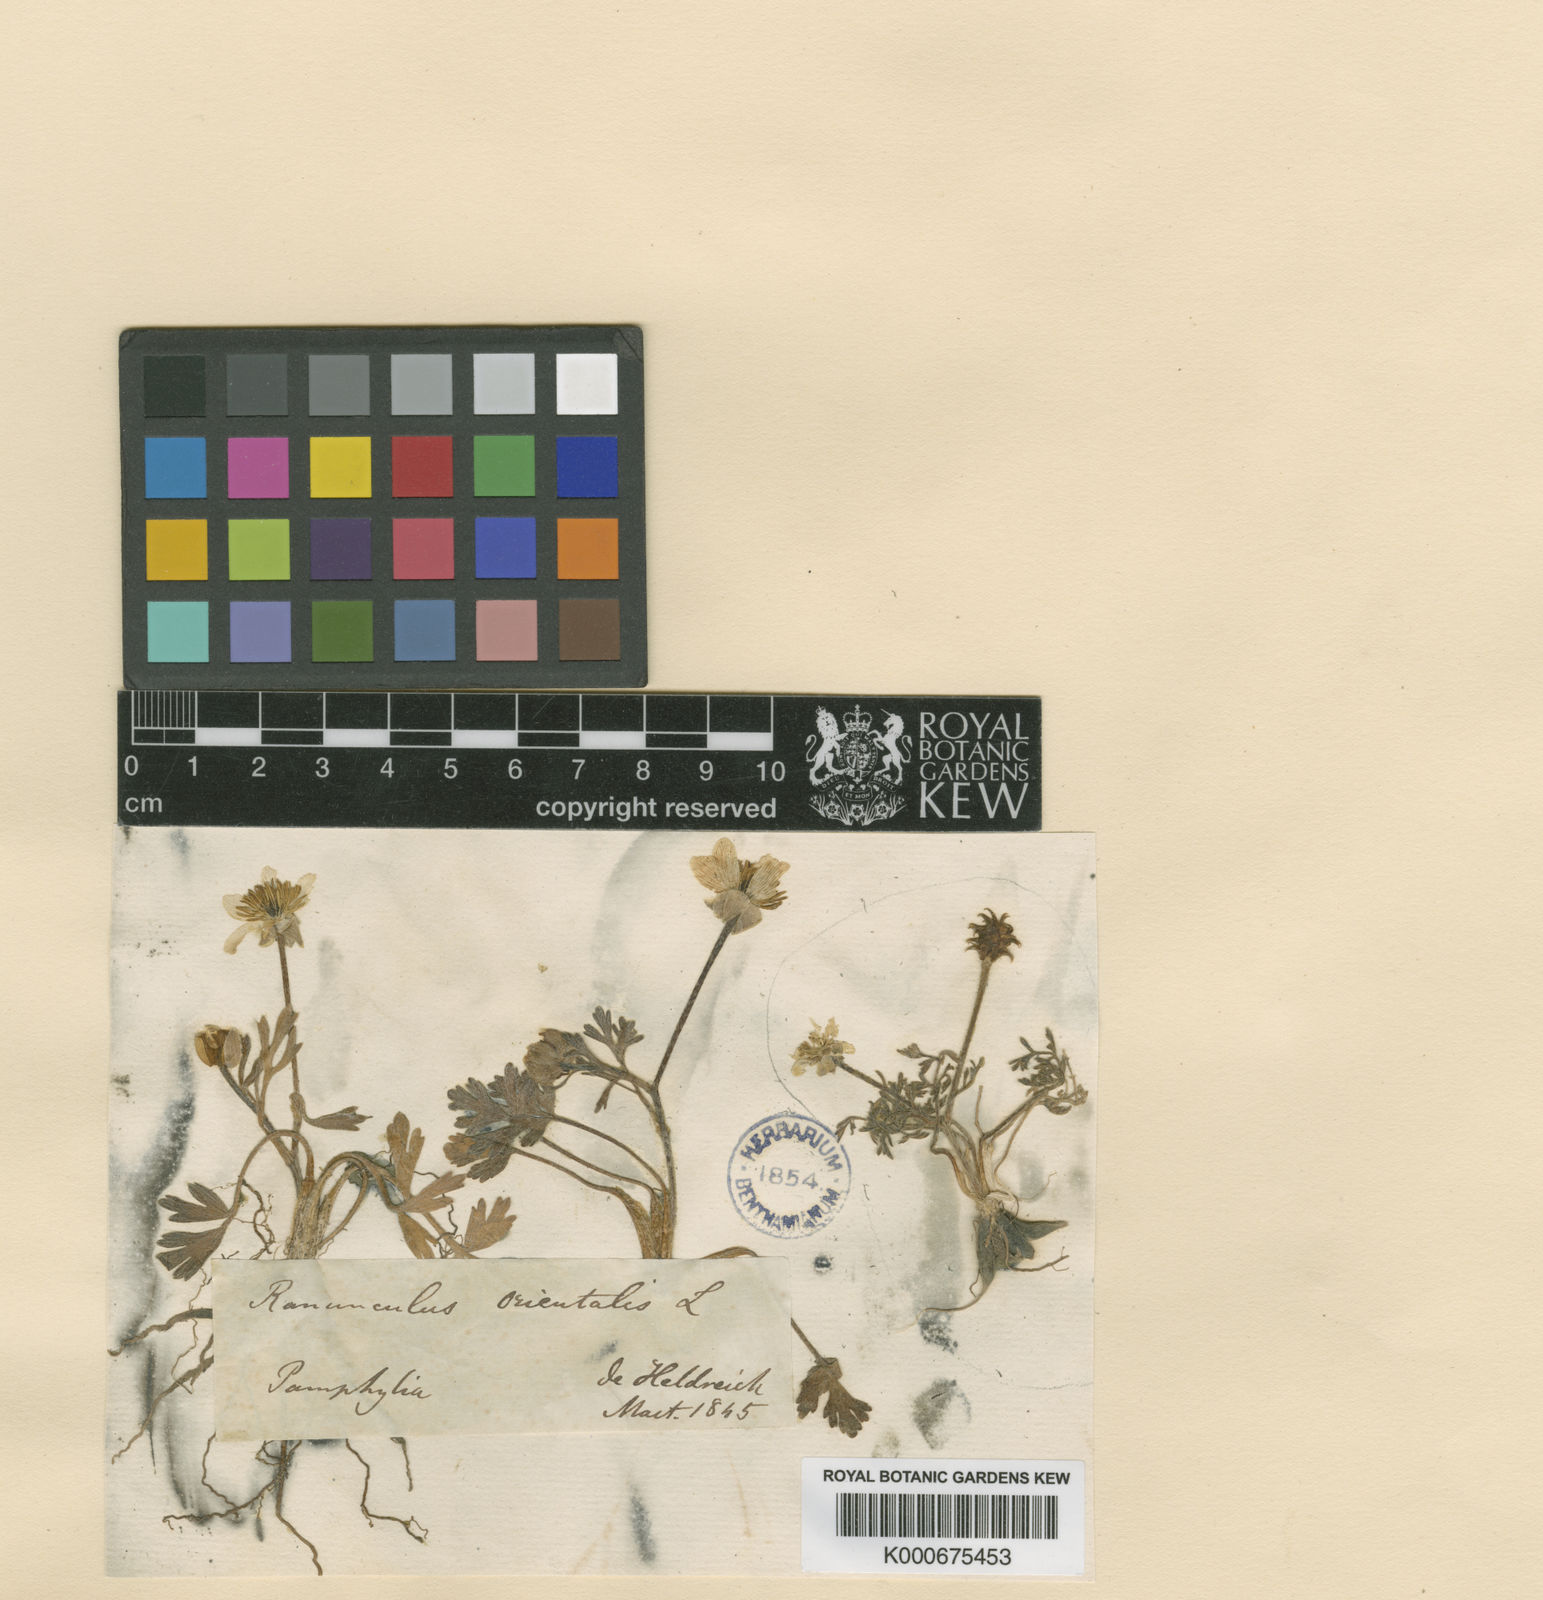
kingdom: Plantae
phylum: Tracheophyta
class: Magnoliopsida
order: Ranunculales
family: Ranunculaceae
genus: Ranunculus
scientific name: Ranunculus isthmicus
